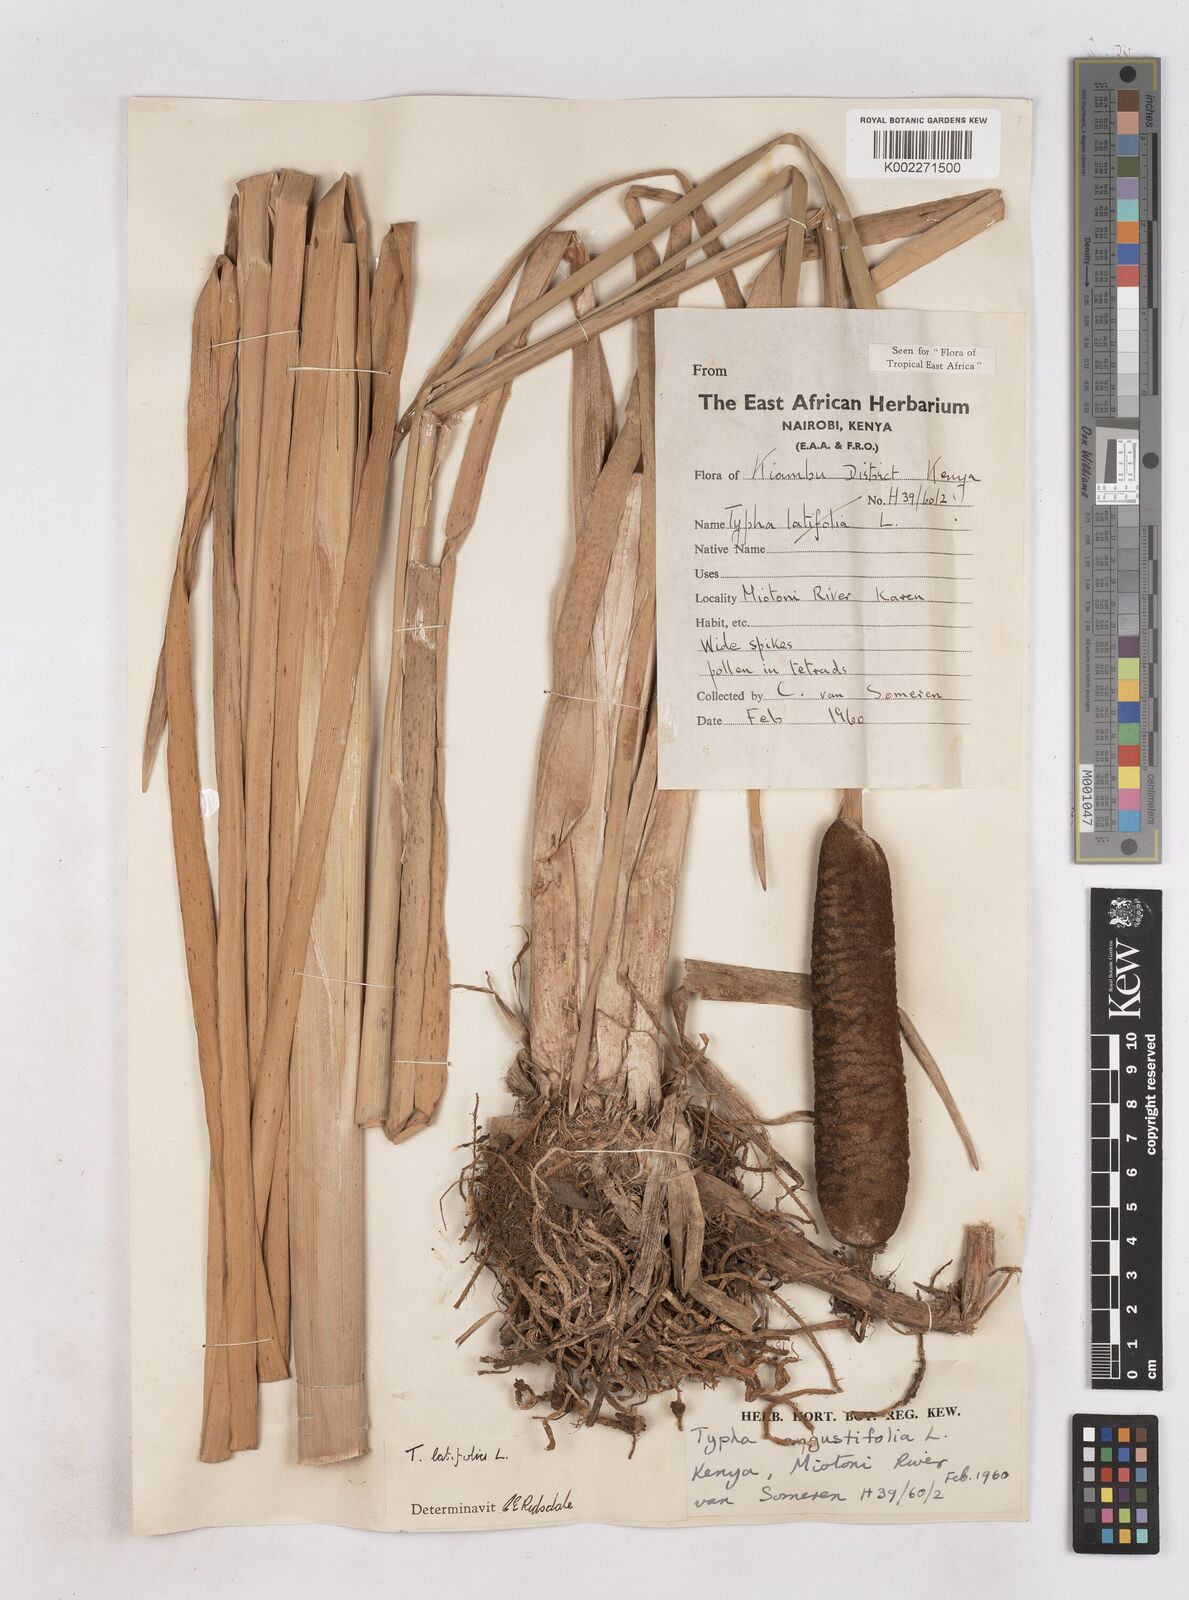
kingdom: Plantae
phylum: Tracheophyta
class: Liliopsida
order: Poales
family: Typhaceae
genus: Typha
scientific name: Typha latifolia
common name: Broadleaf cattail
